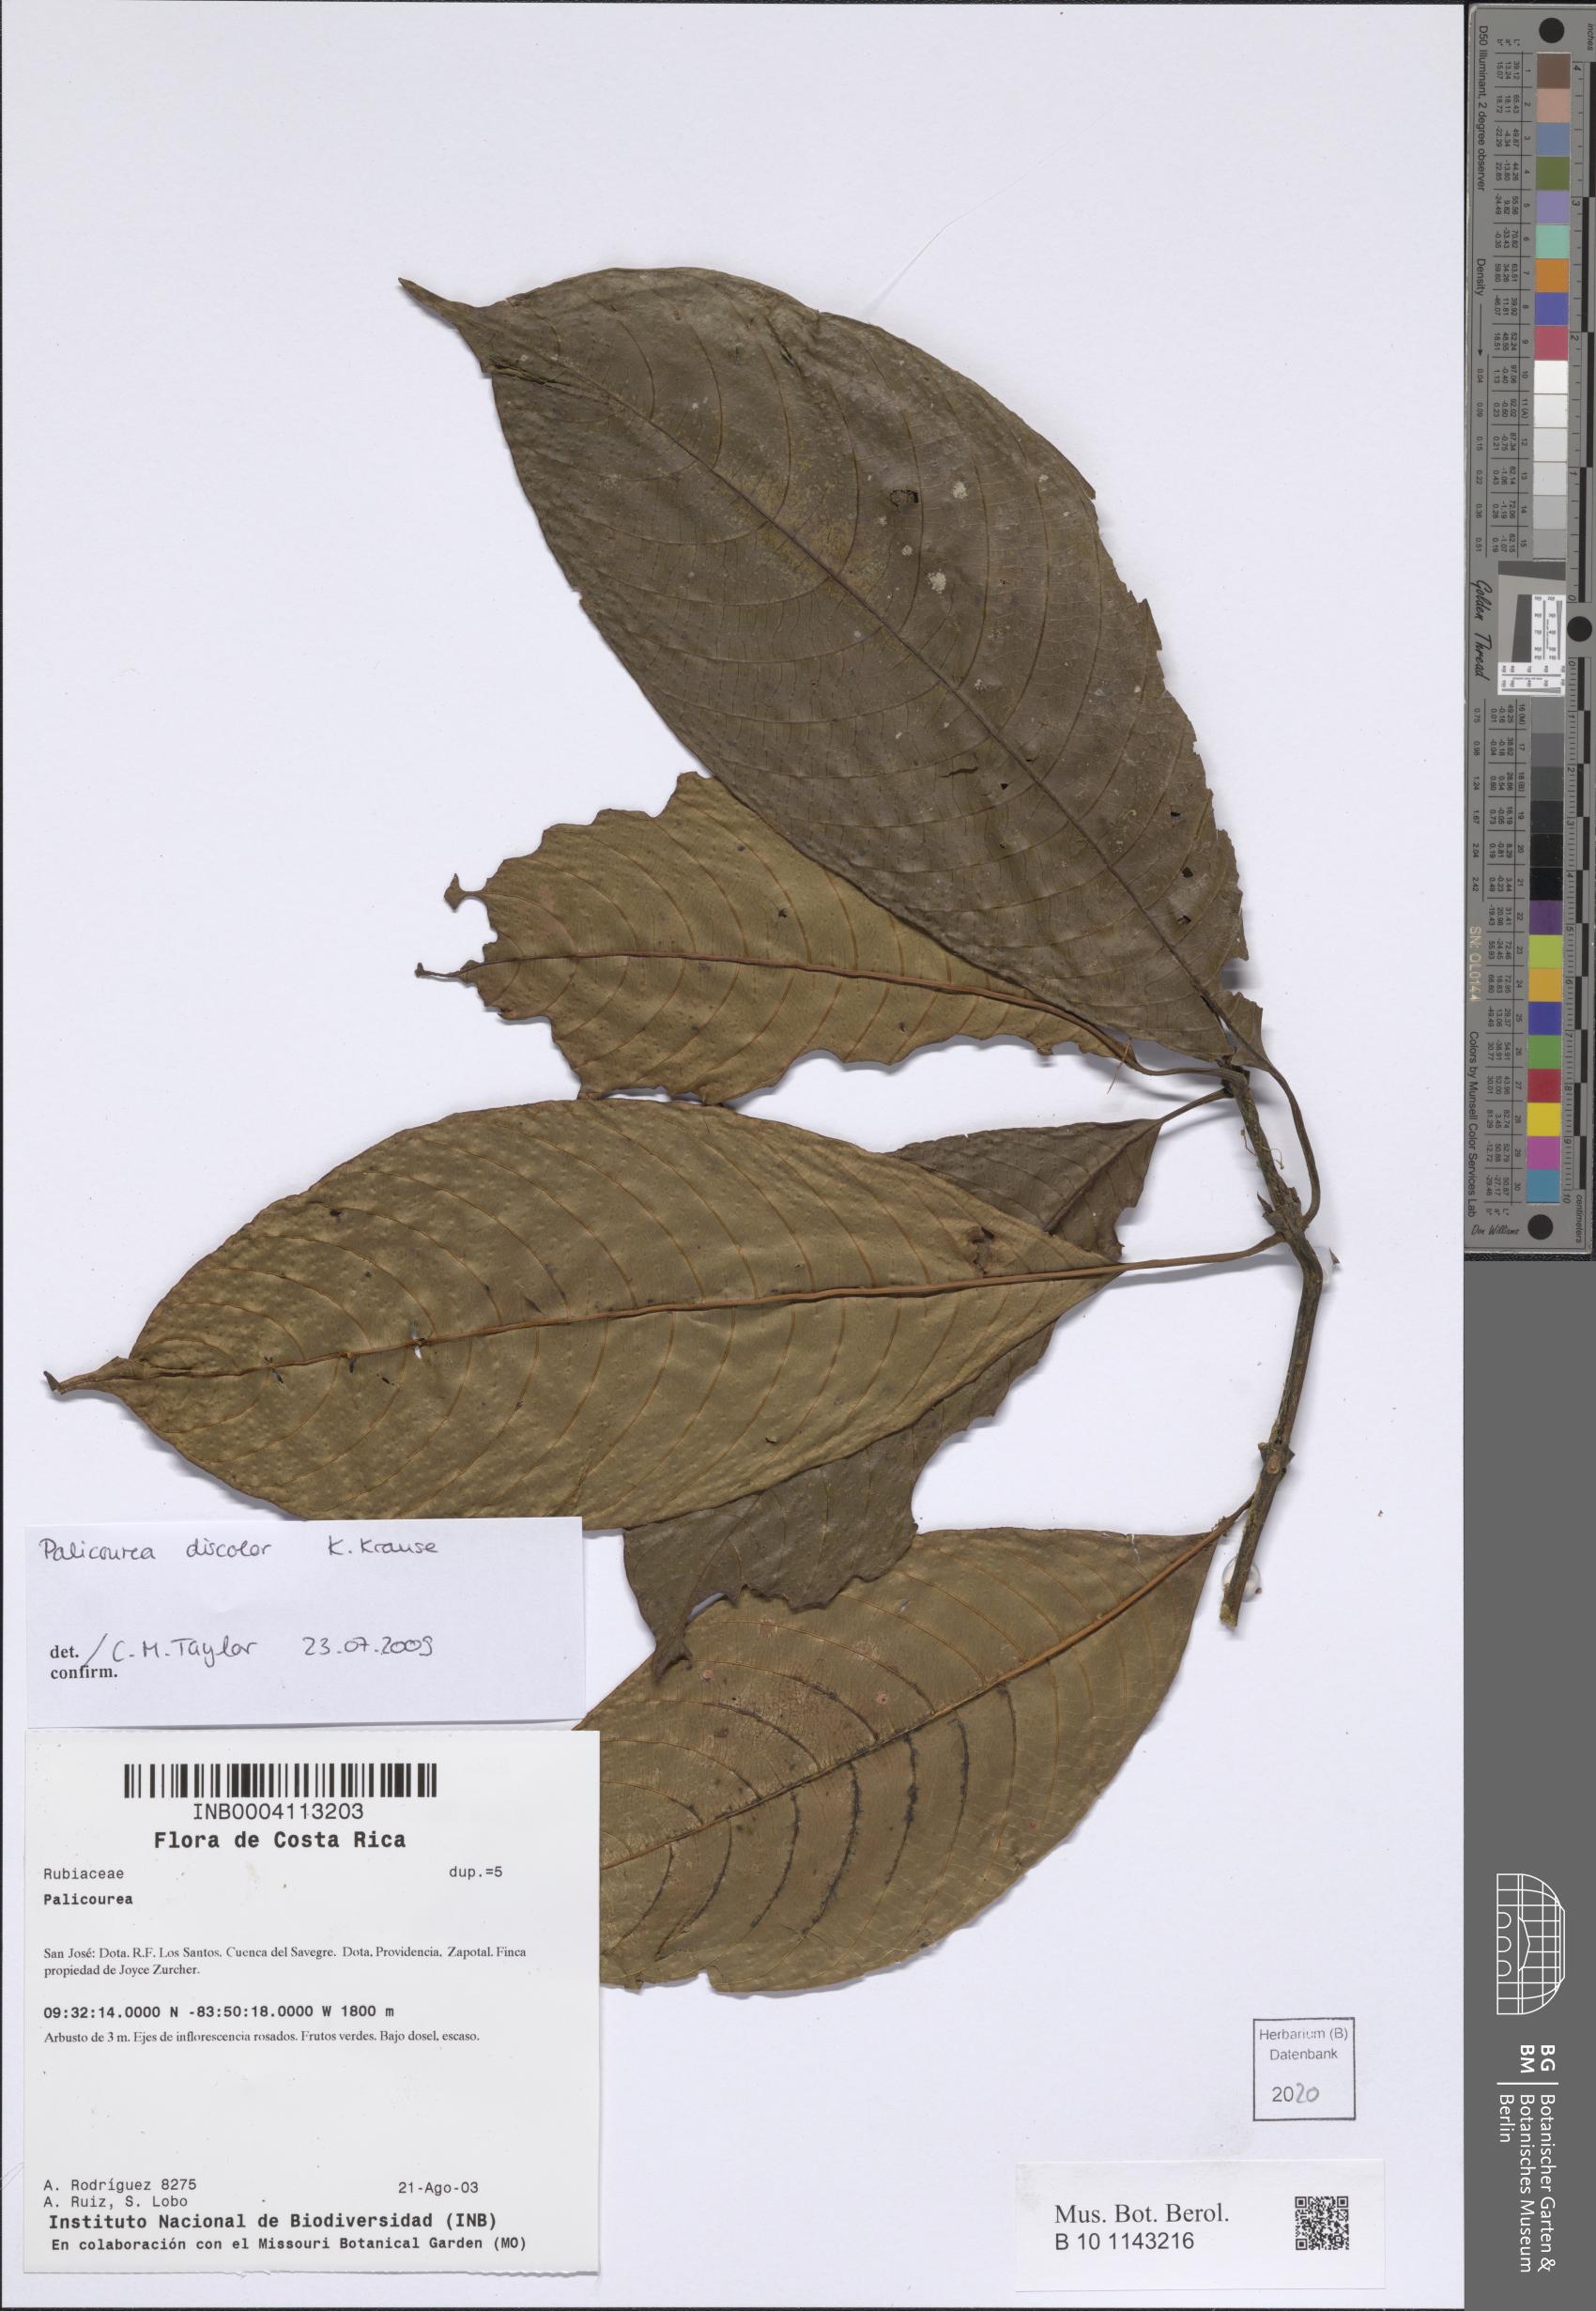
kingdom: Plantae
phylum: Tracheophyta
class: Magnoliopsida
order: Gentianales
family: Rubiaceae
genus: Palicourea
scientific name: Palicourea macrosepala
